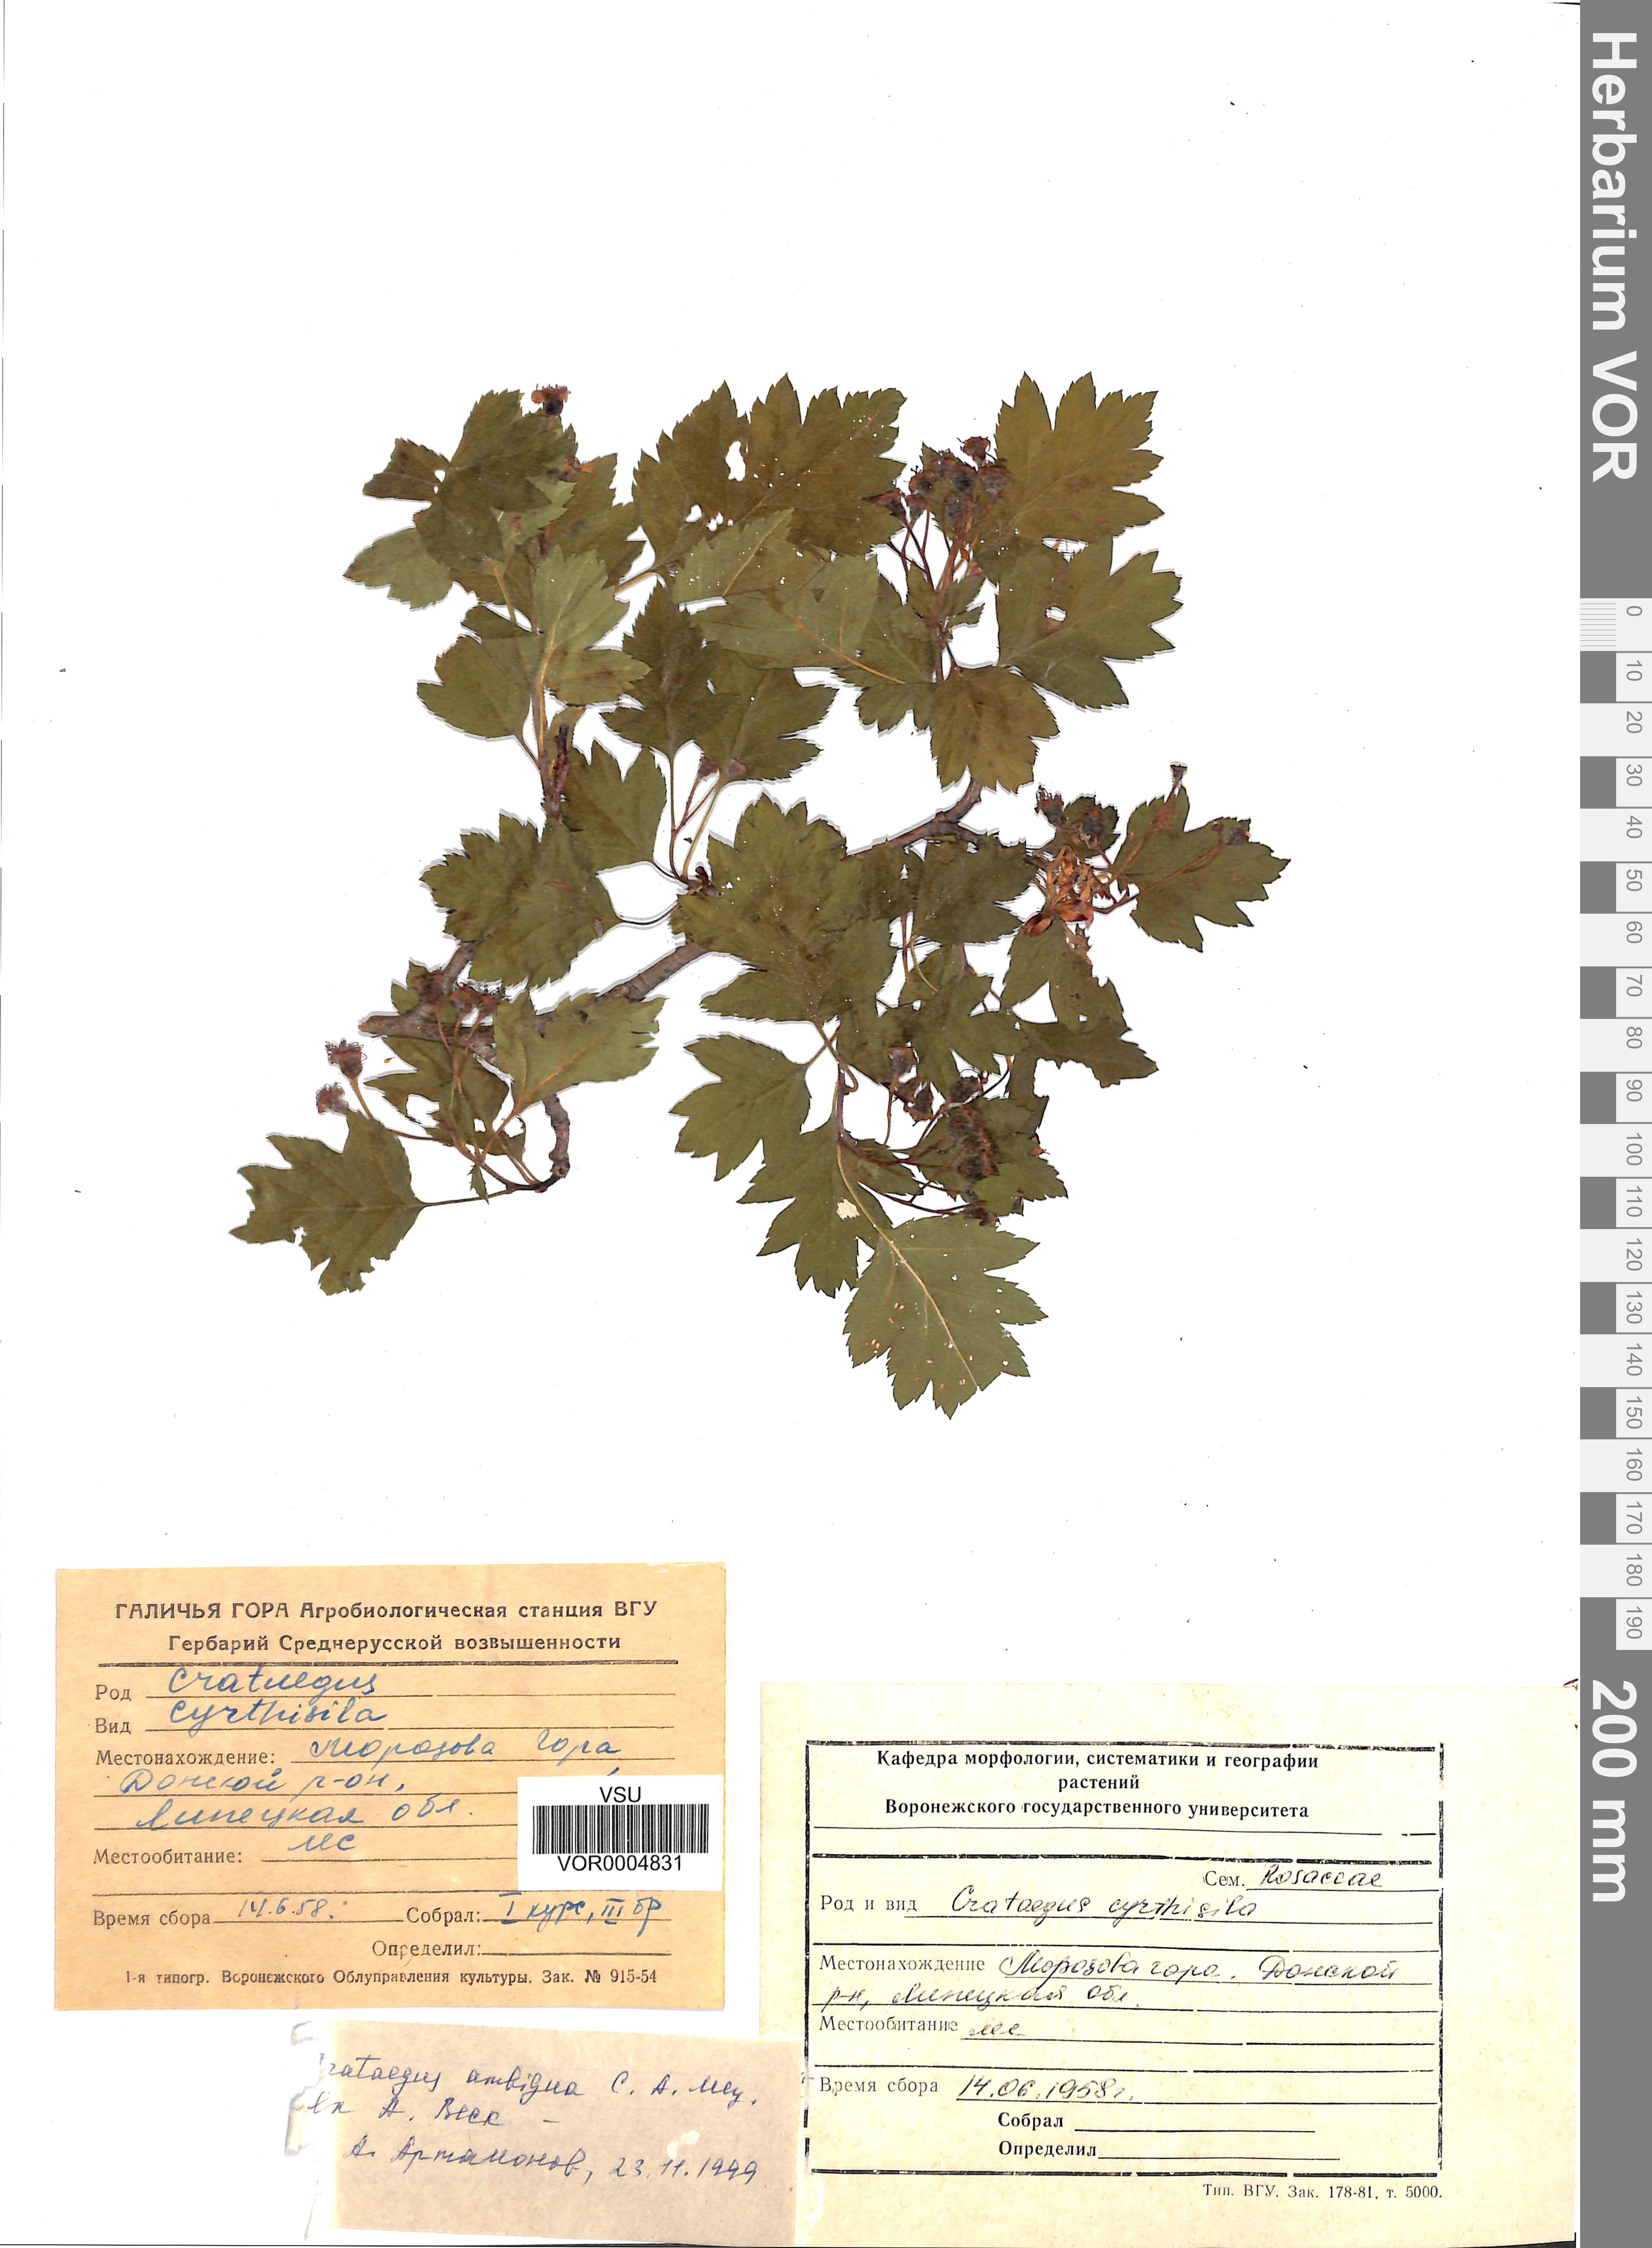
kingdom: Plantae
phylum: Tracheophyta
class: Magnoliopsida
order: Rosales
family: Rosaceae
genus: Crataegus
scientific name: Crataegus ambigua
